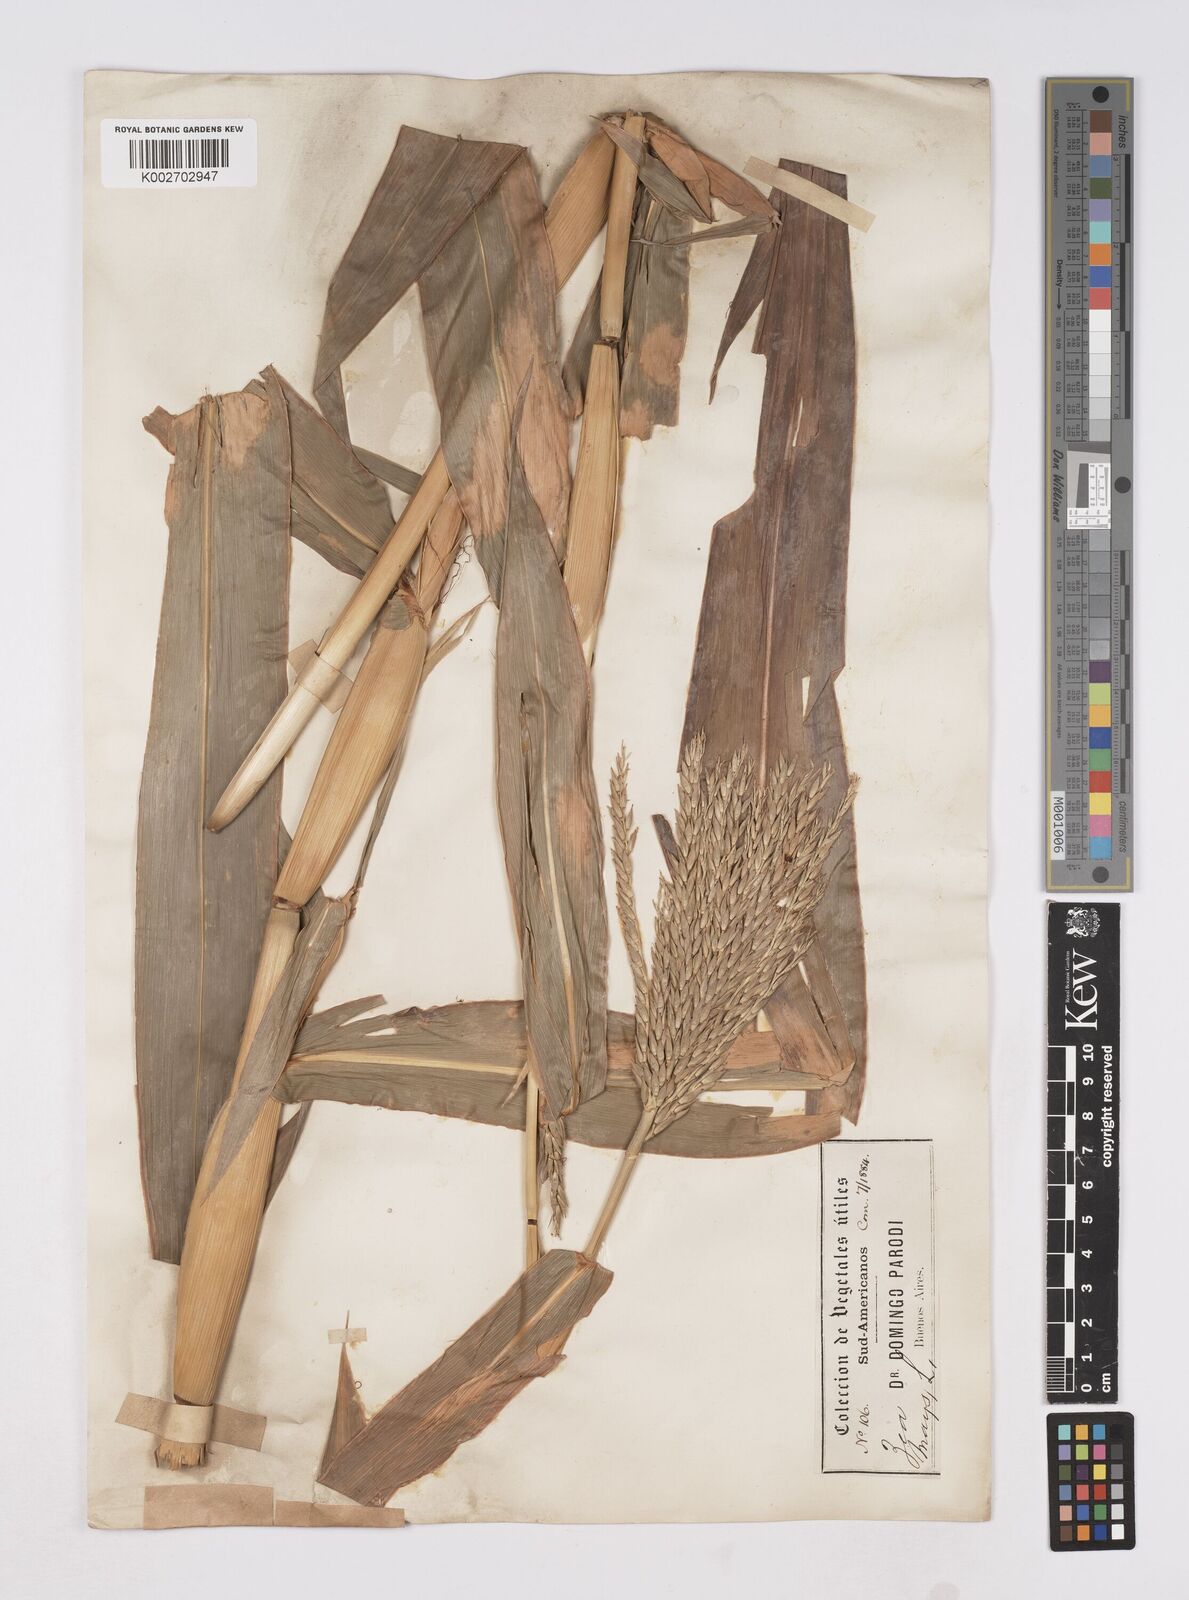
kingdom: Plantae
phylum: Tracheophyta
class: Liliopsida
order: Poales
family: Poaceae
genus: Zea
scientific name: Zea mays
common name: Maize
